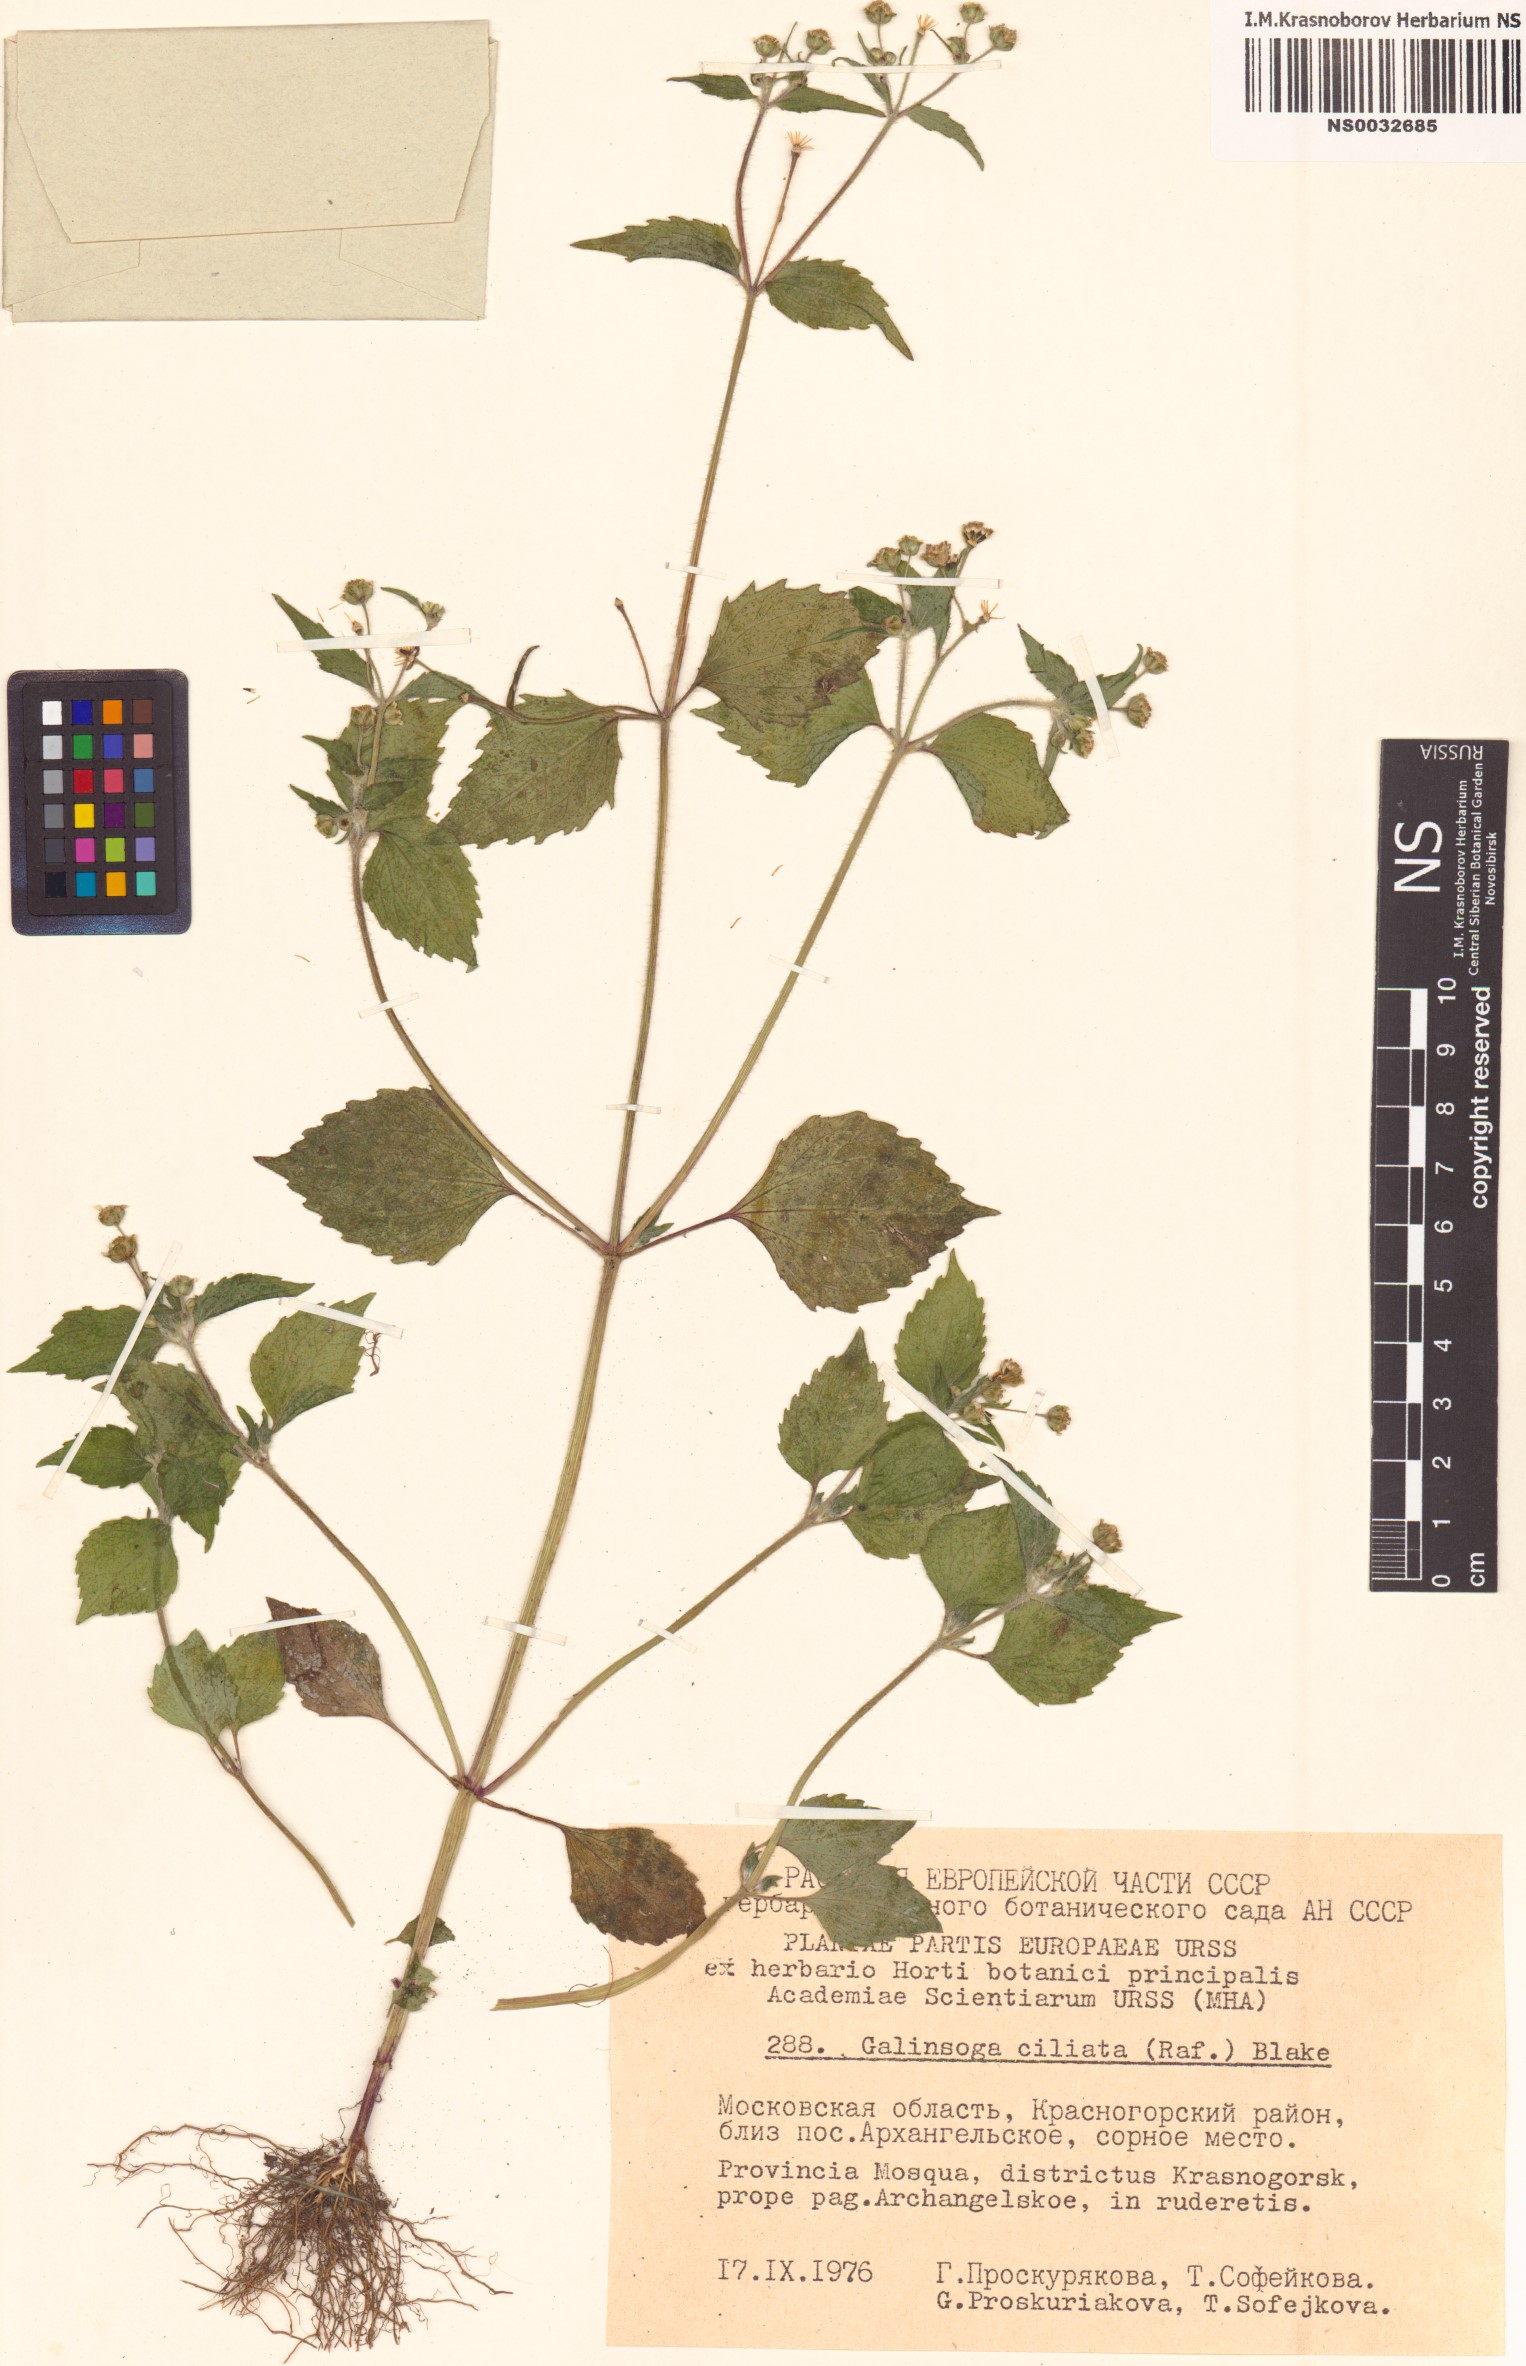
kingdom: Plantae
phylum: Tracheophyta
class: Magnoliopsida
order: Asterales
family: Asteraceae
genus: Galinsoga
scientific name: Galinsoga quadriradiata
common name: Shaggy soldier
